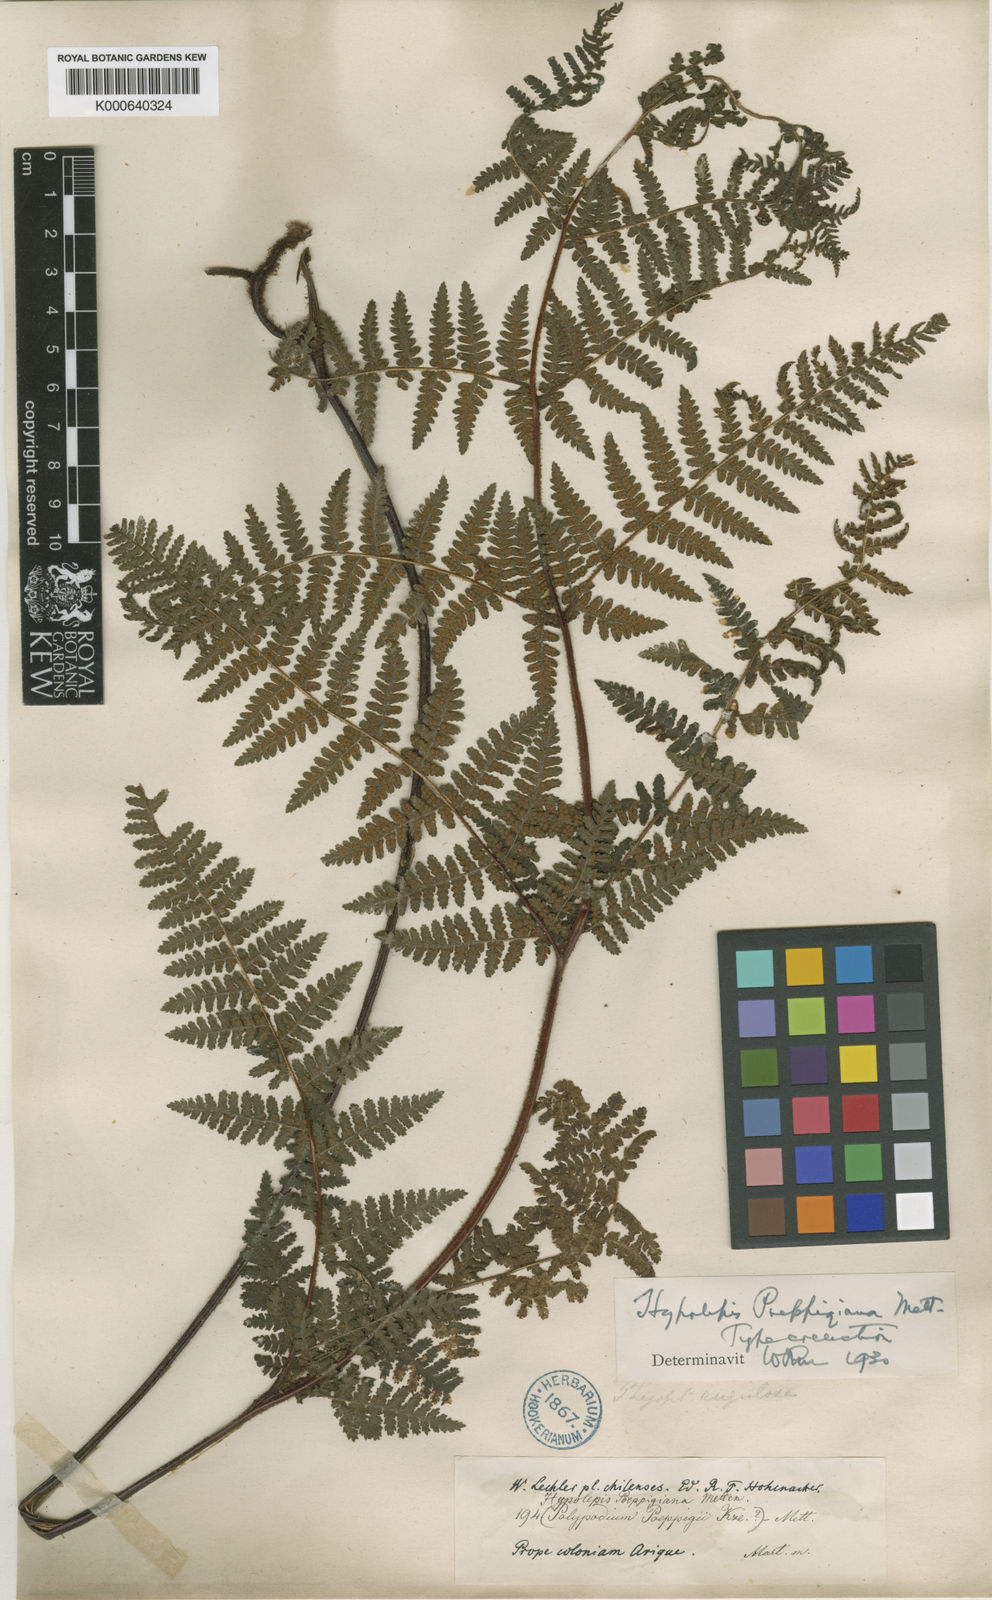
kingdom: Plantae
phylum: Tracheophyta
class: Polypodiopsida
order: Polypodiales
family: Dennstaedtiaceae
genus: Hypolepis
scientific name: Hypolepis rugosula
